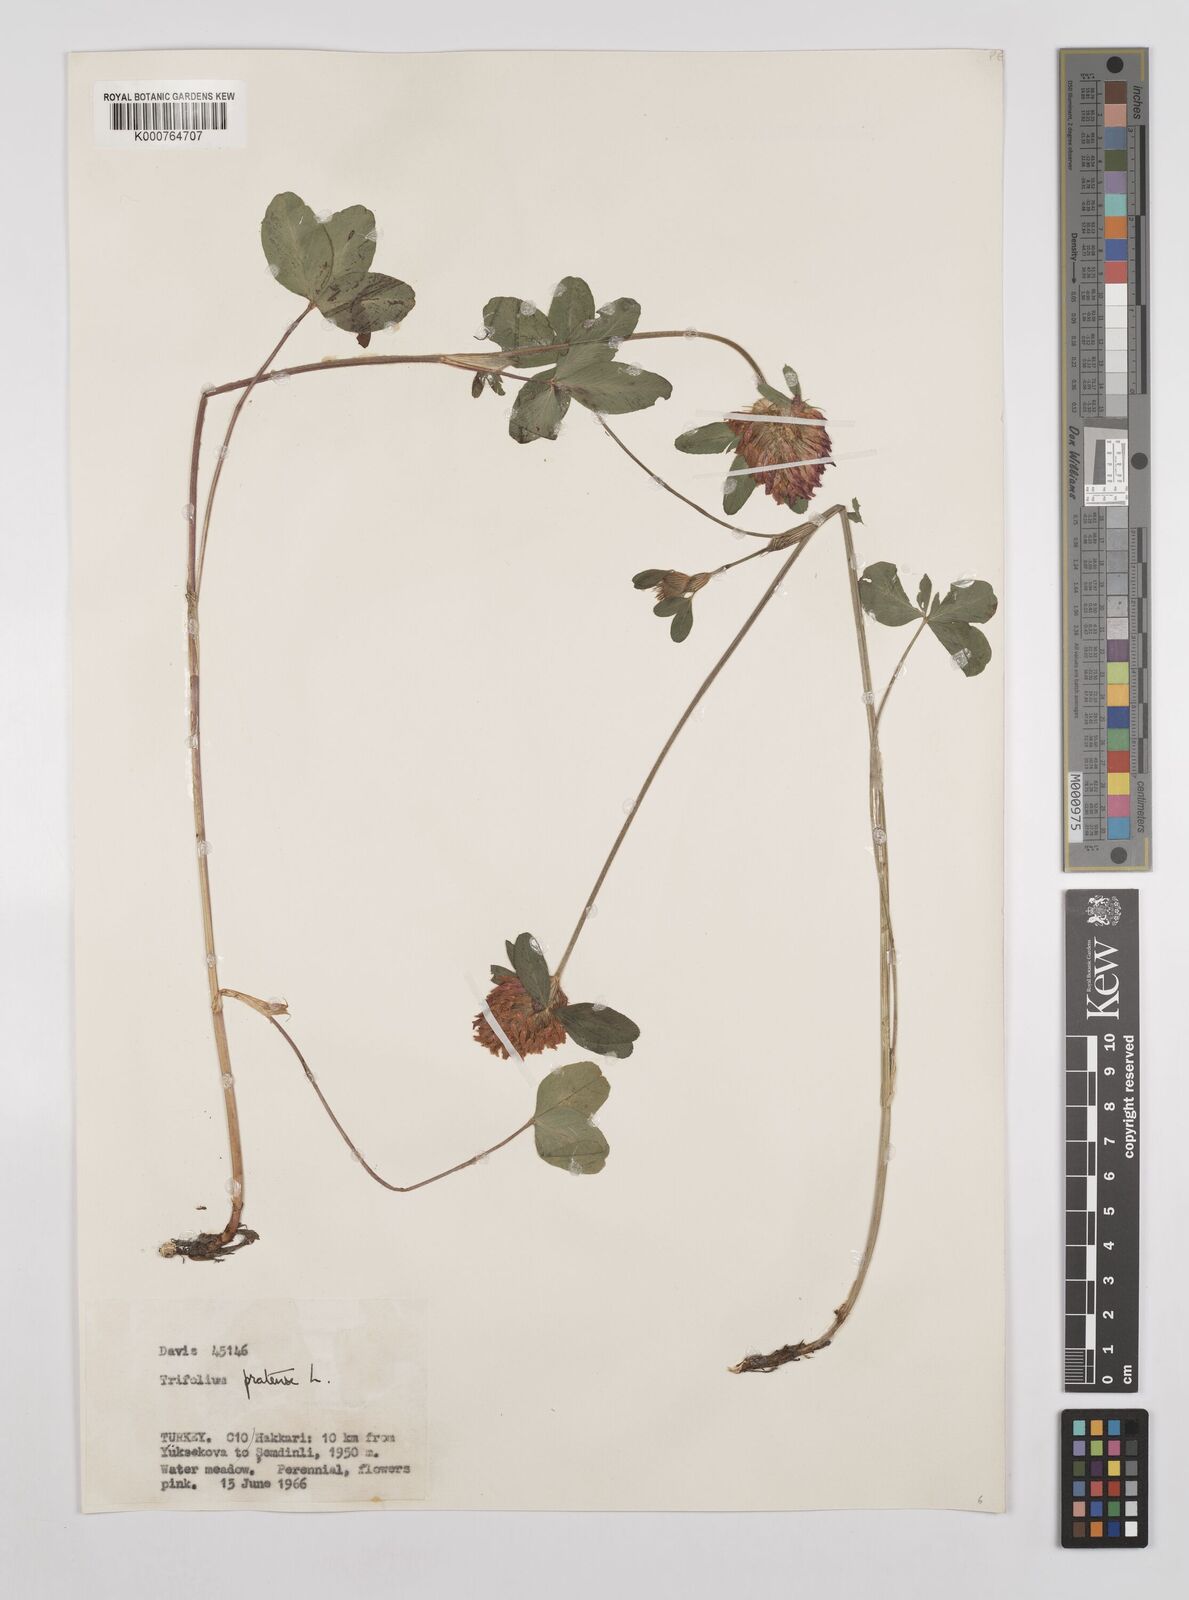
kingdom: Plantae
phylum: Tracheophyta
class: Magnoliopsida
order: Fabales
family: Fabaceae
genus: Trifolium
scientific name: Trifolium pratense
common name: Red clover
